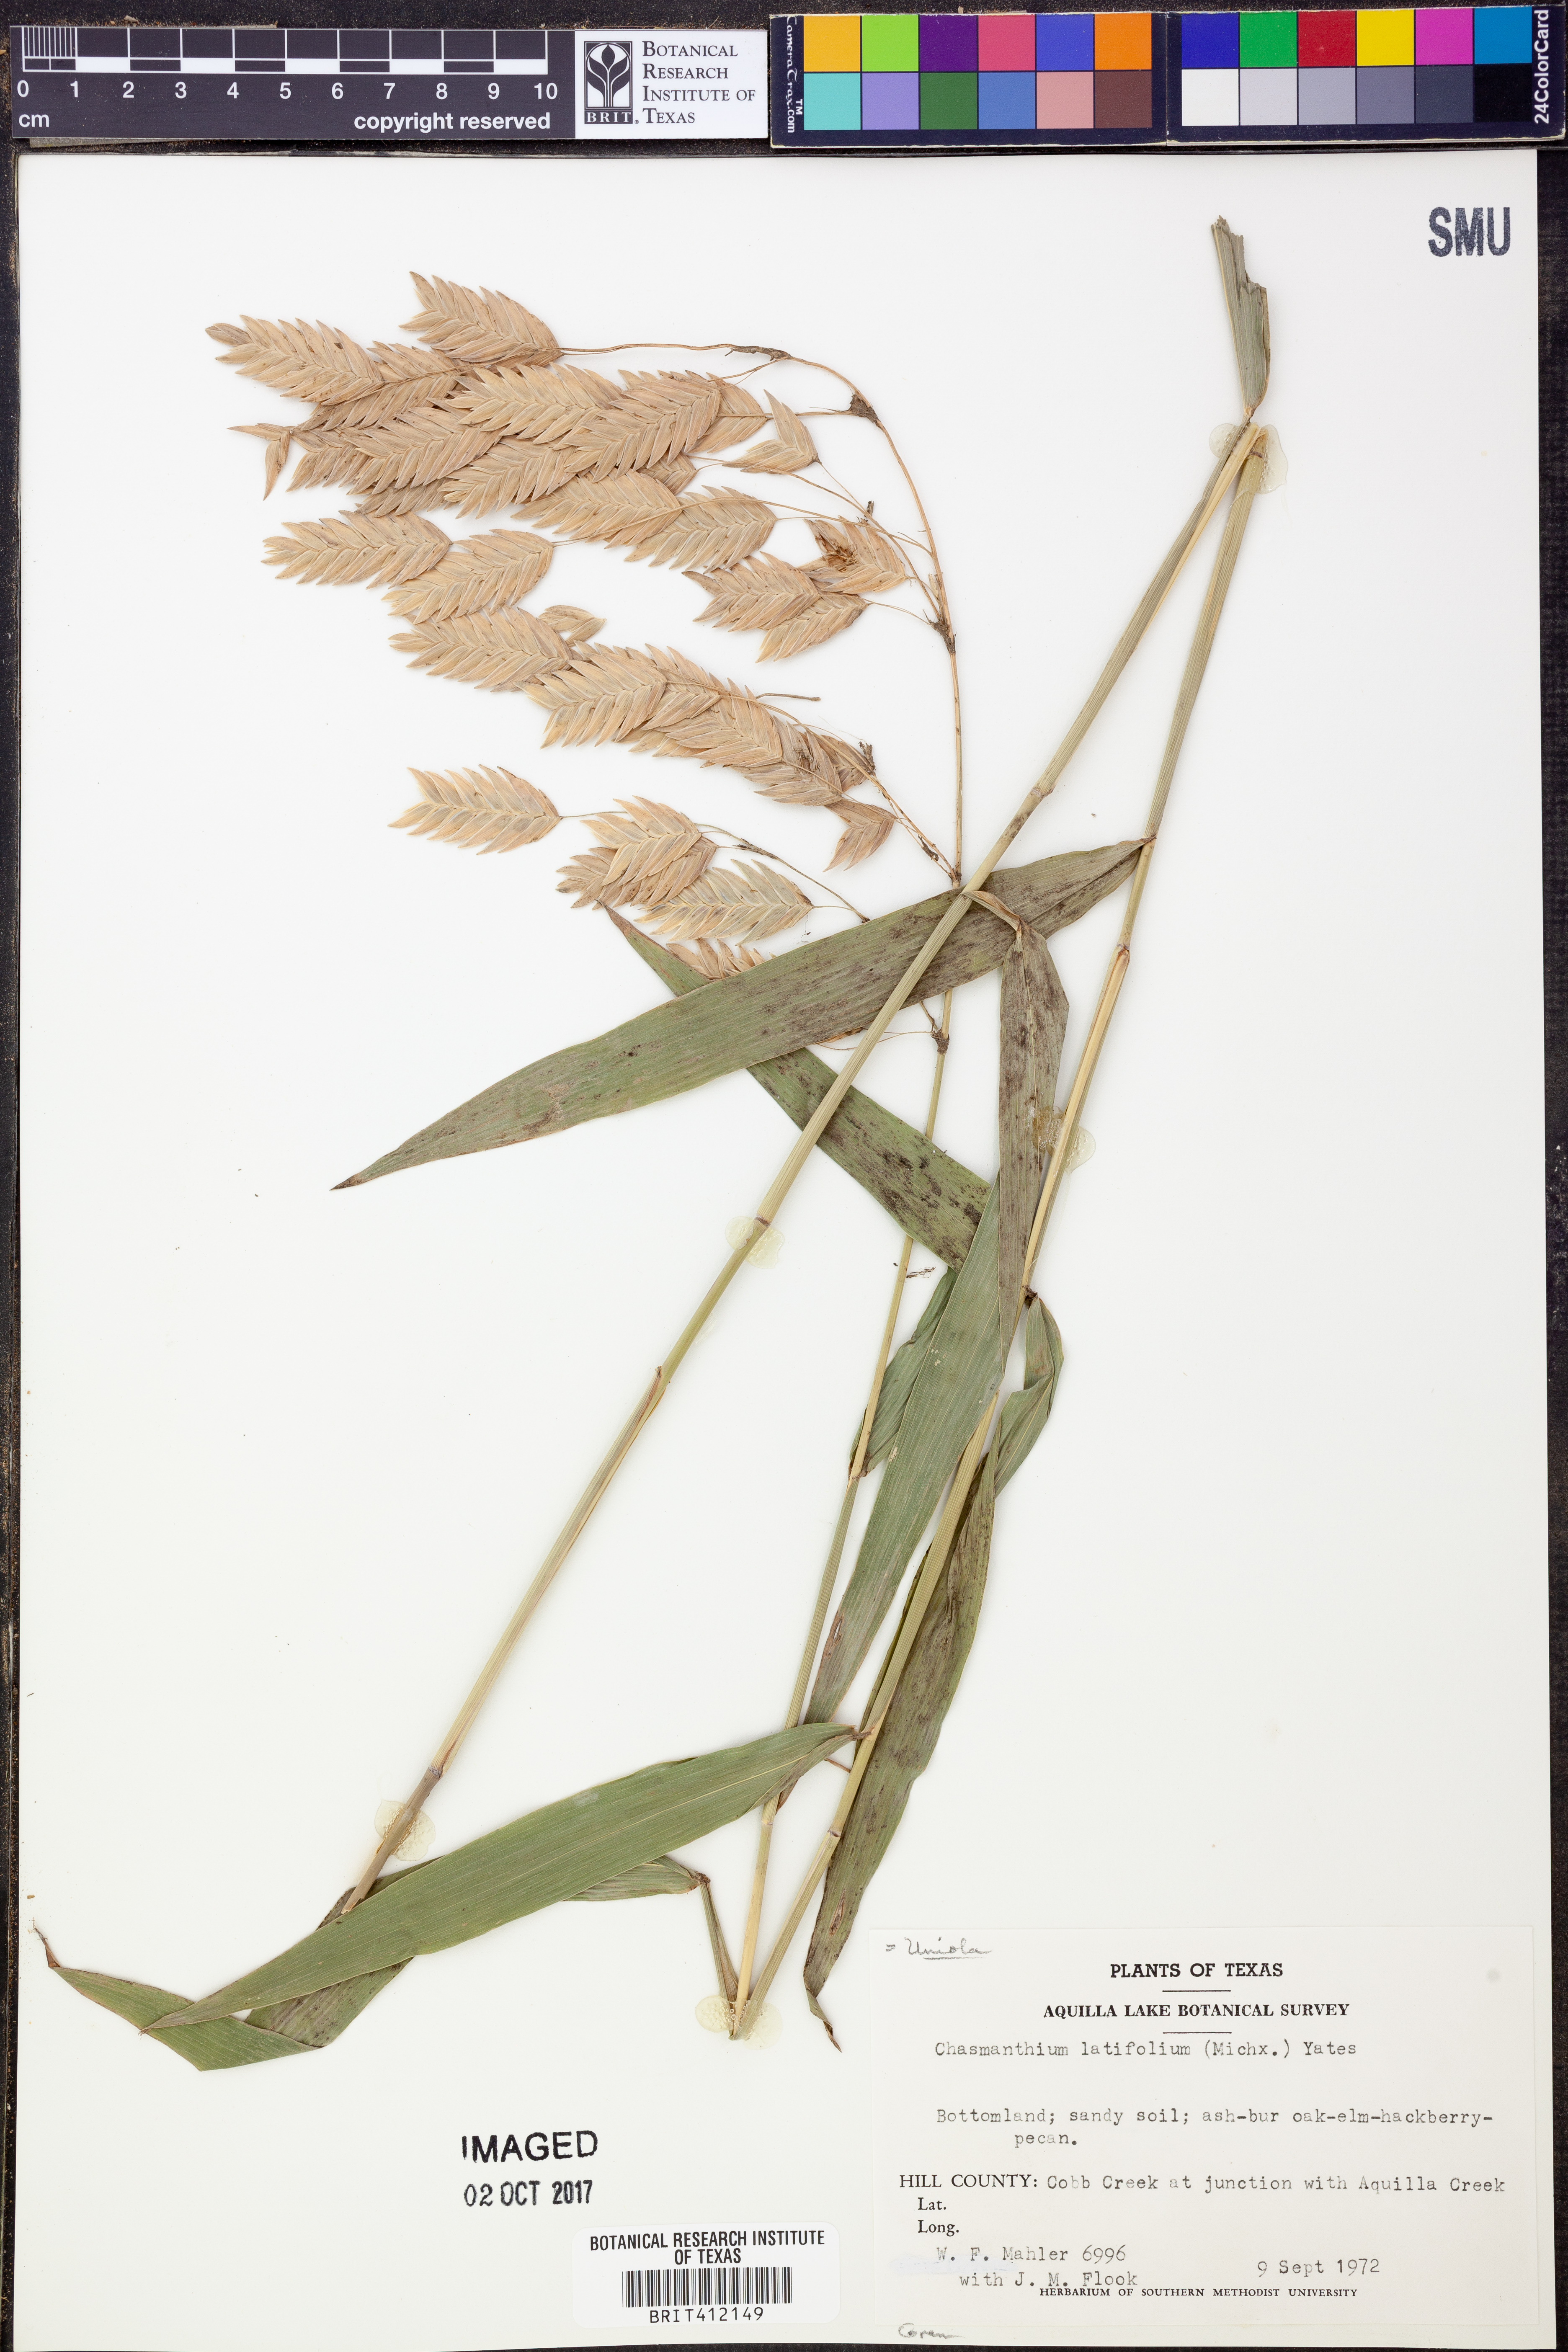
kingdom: Plantae
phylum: Tracheophyta
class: Liliopsida
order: Poales
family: Poaceae
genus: Chasmanthium
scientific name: Chasmanthium latifolium
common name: Broad-leaved chasmanthium
